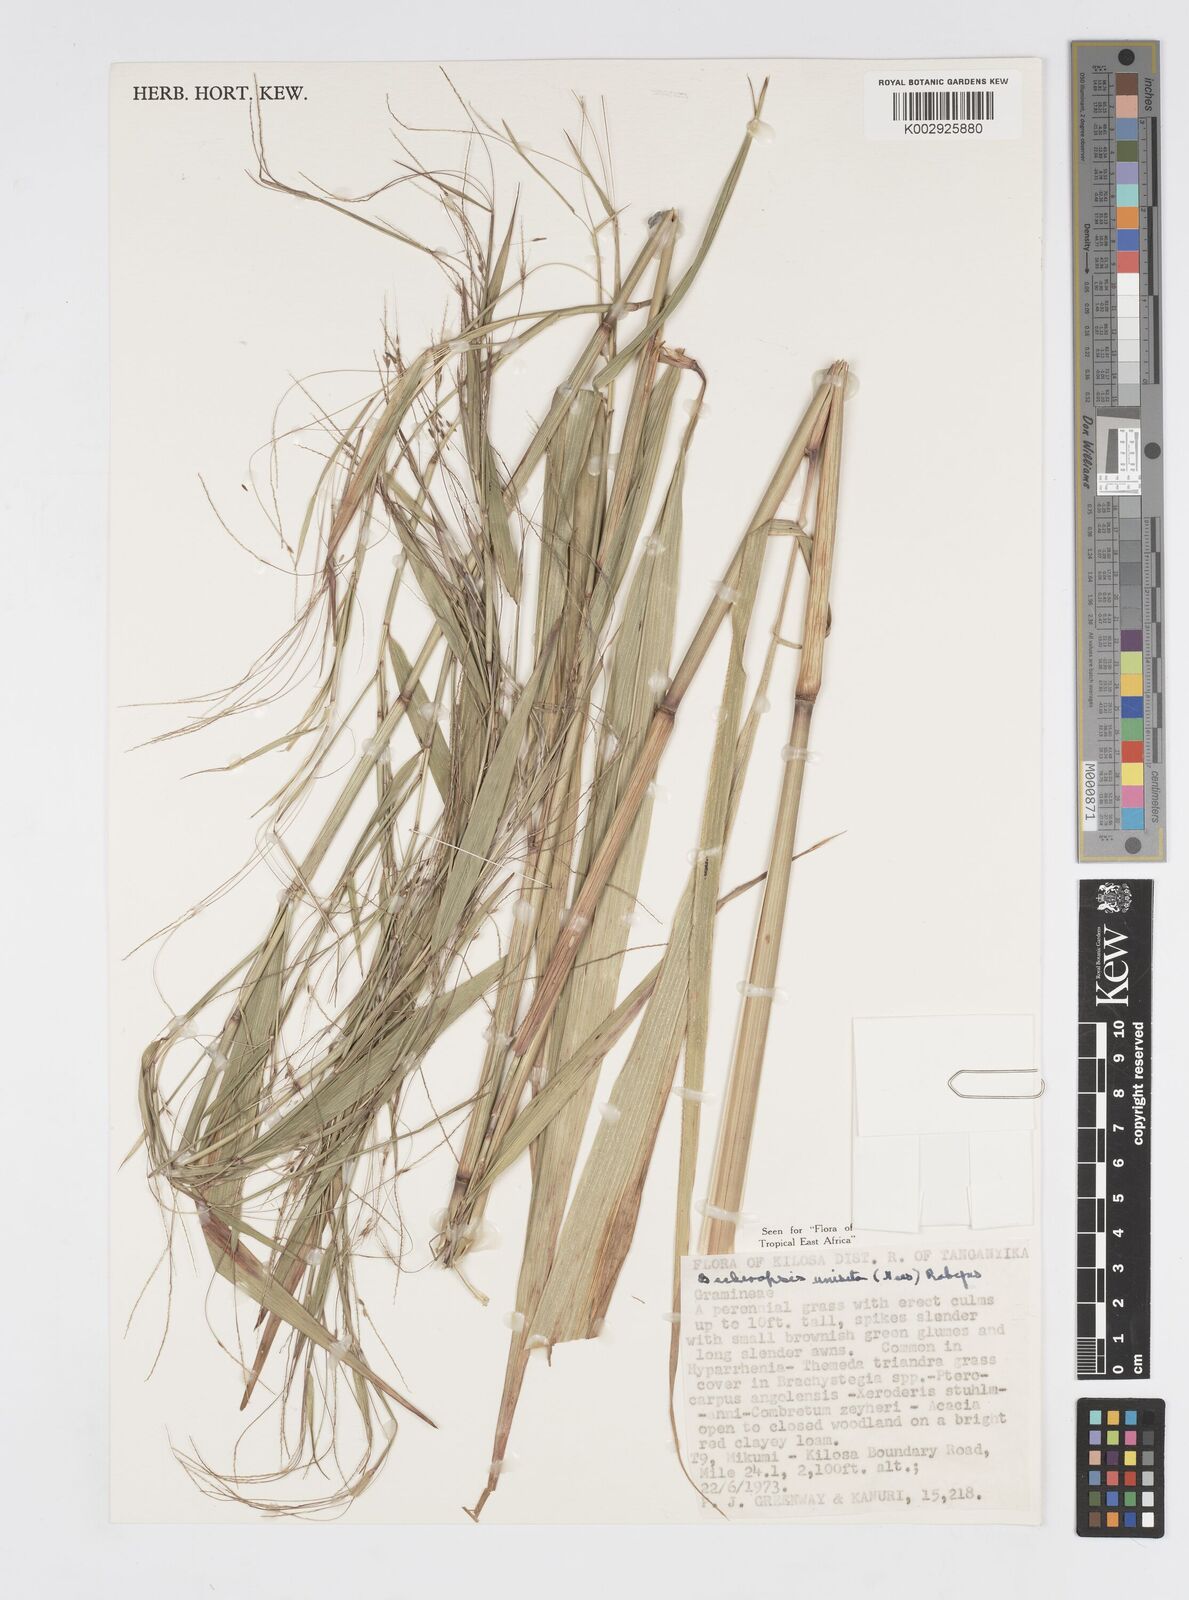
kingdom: Plantae
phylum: Tracheophyta
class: Liliopsida
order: Poales
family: Poaceae
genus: Cenchrus
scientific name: Cenchrus Pennisetum spec
